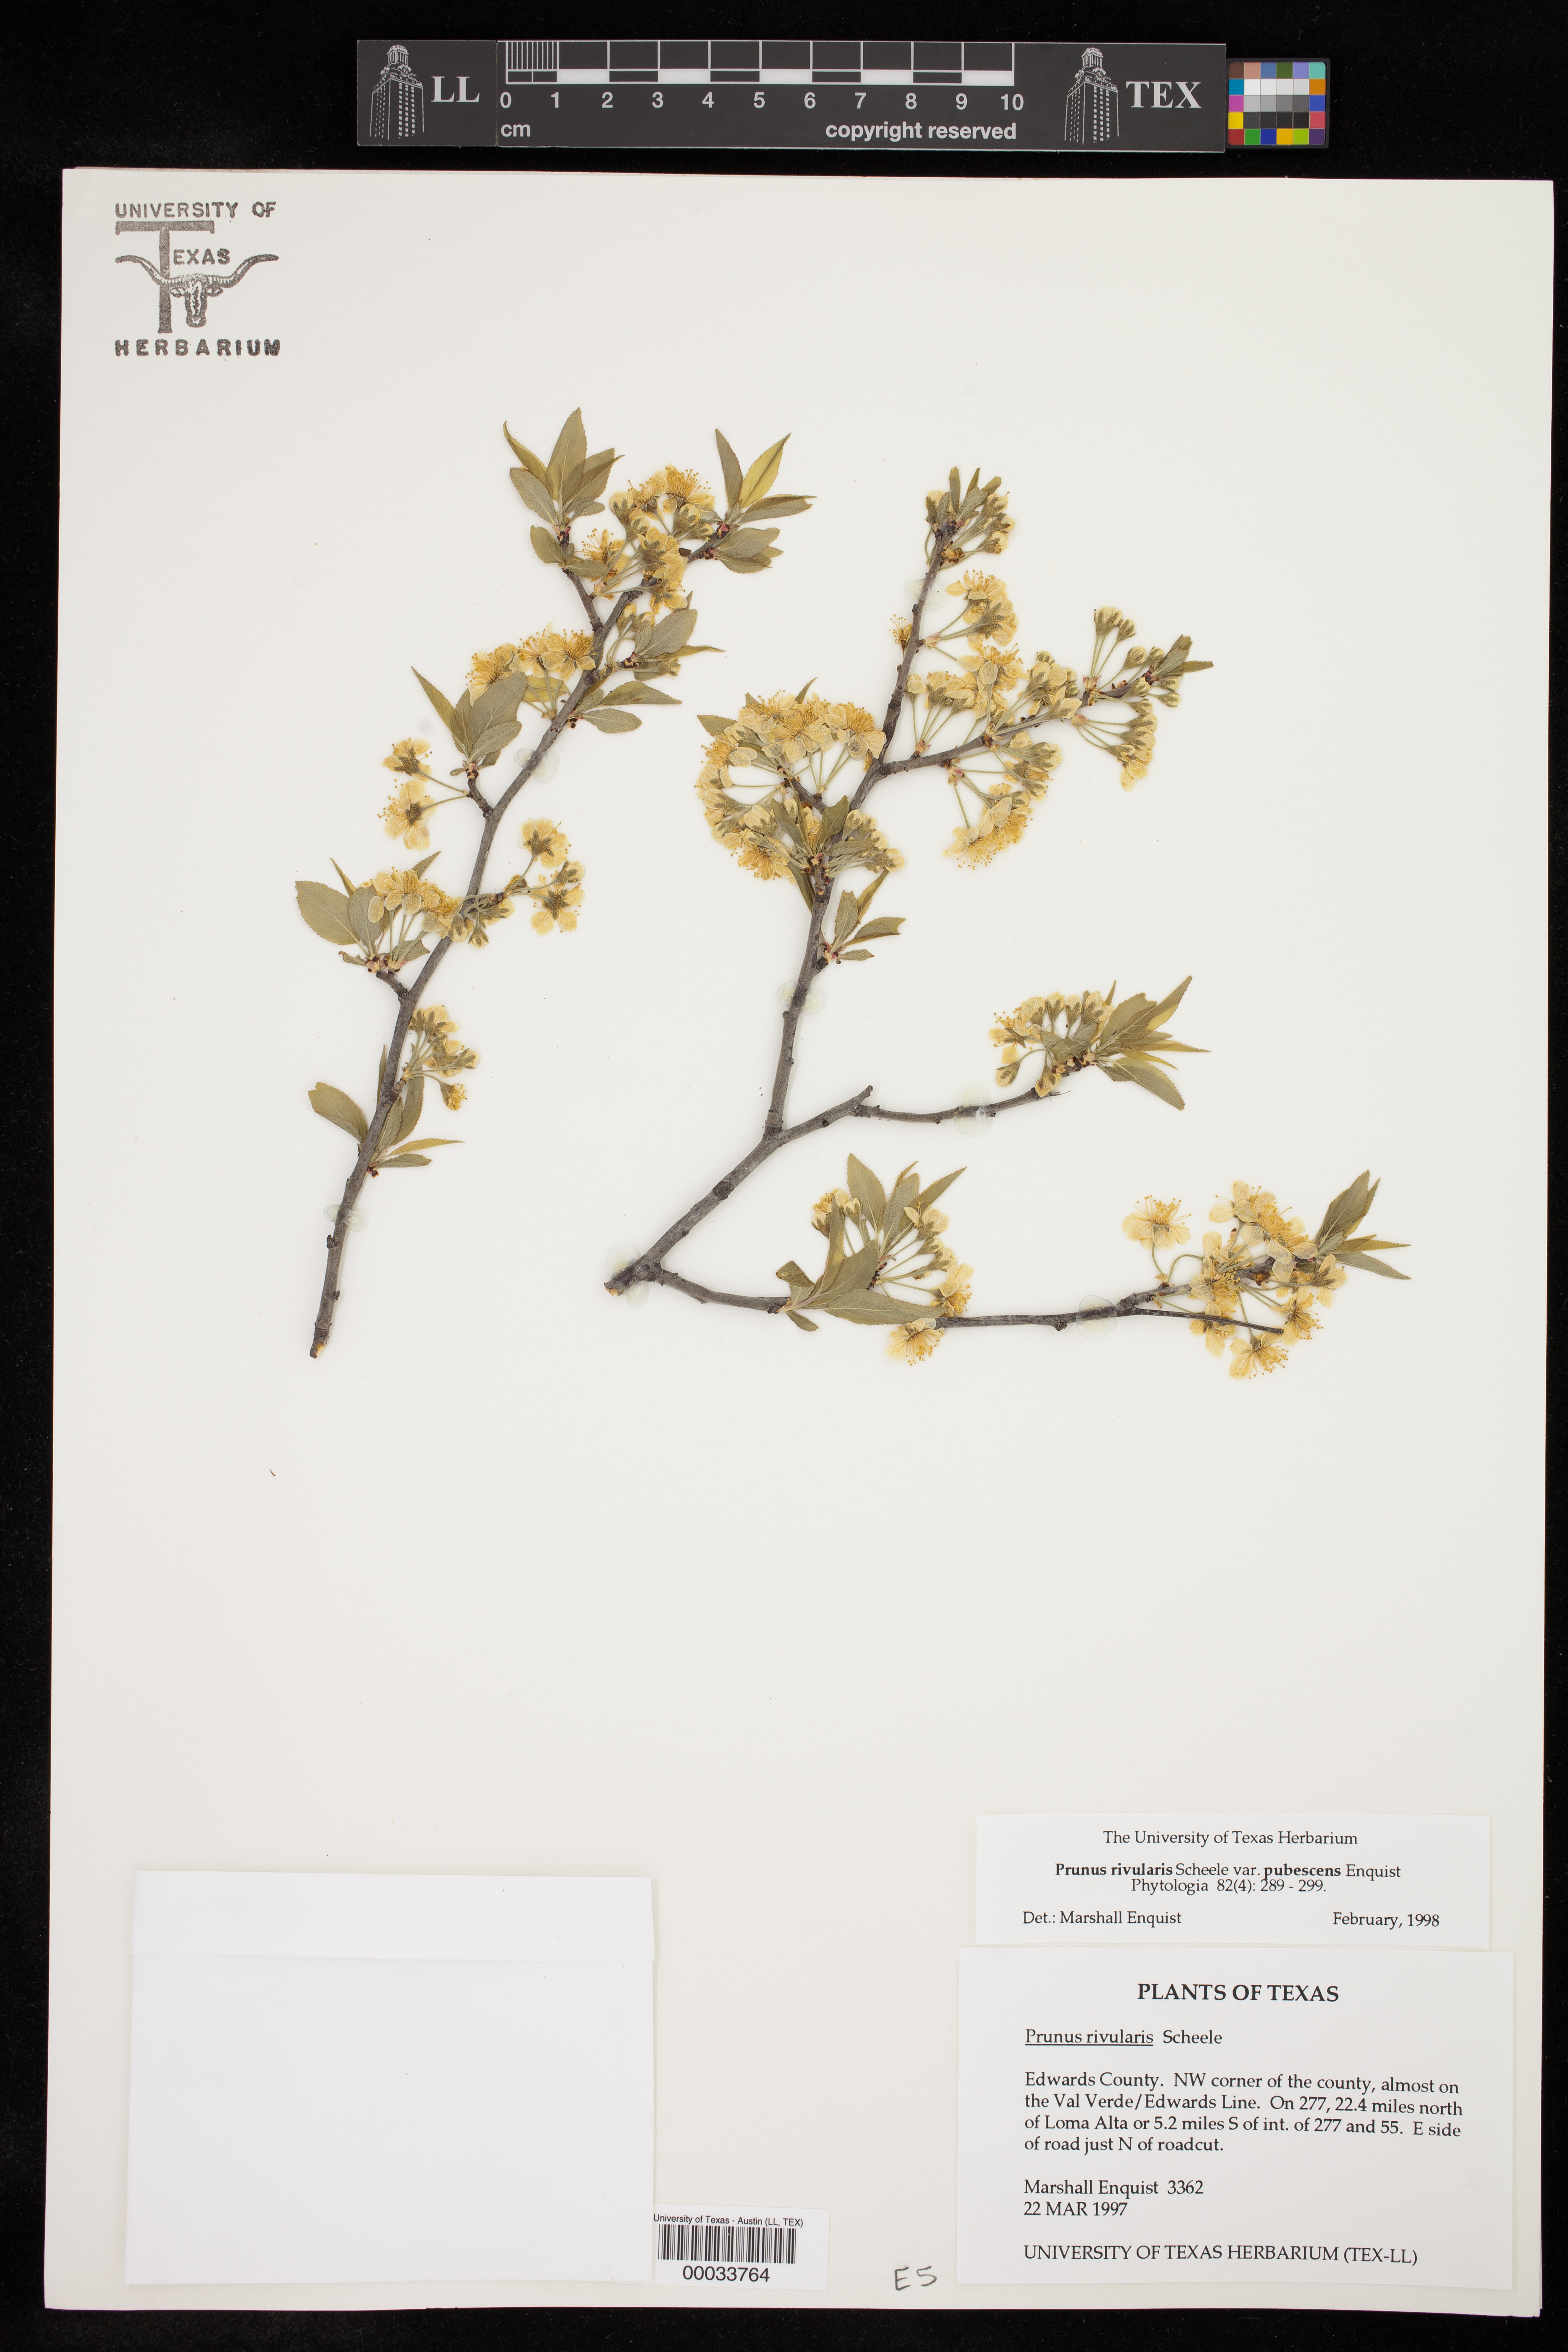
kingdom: Plantae
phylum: Tracheophyta
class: Magnoliopsida
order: Rosales
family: Rosaceae
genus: Prunus
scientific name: Prunus rivularis
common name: Creek plum
